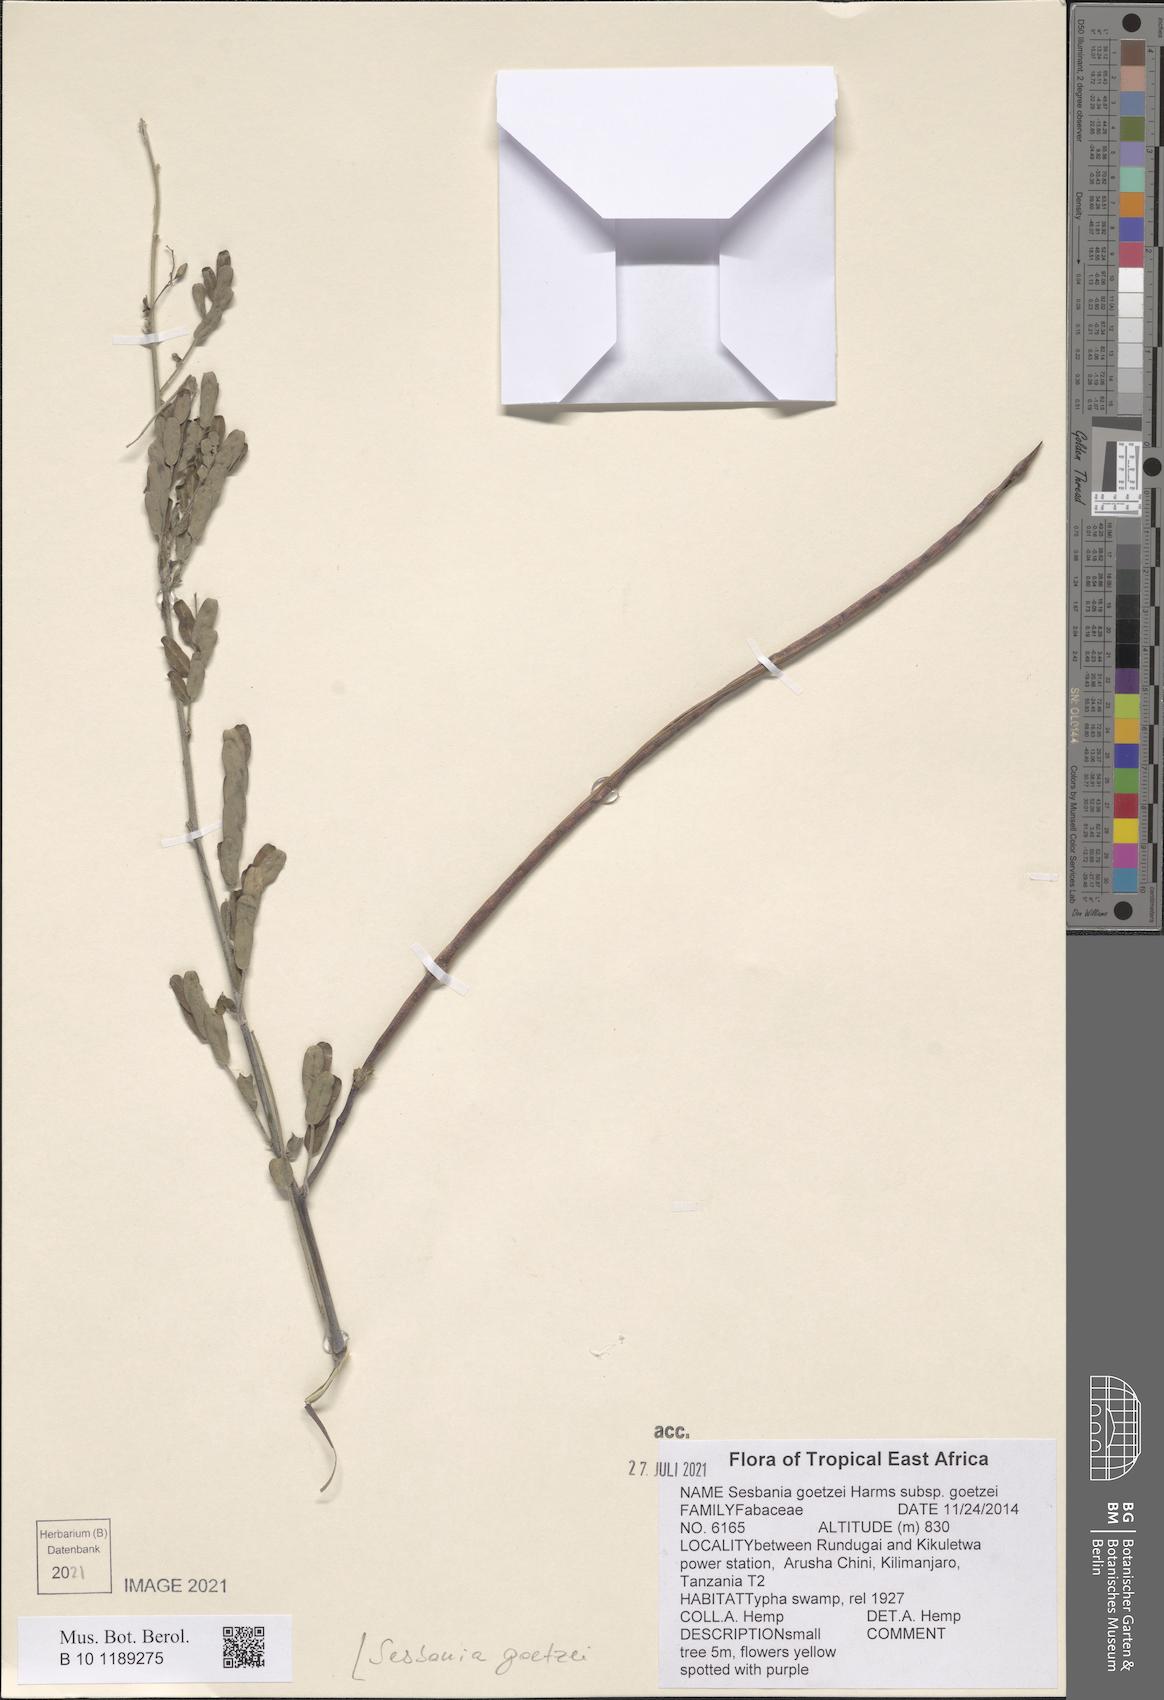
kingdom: Plantae
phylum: Tracheophyta
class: Magnoliopsida
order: Fabales
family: Fabaceae
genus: Sesbania
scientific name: Sesbania goetzei
